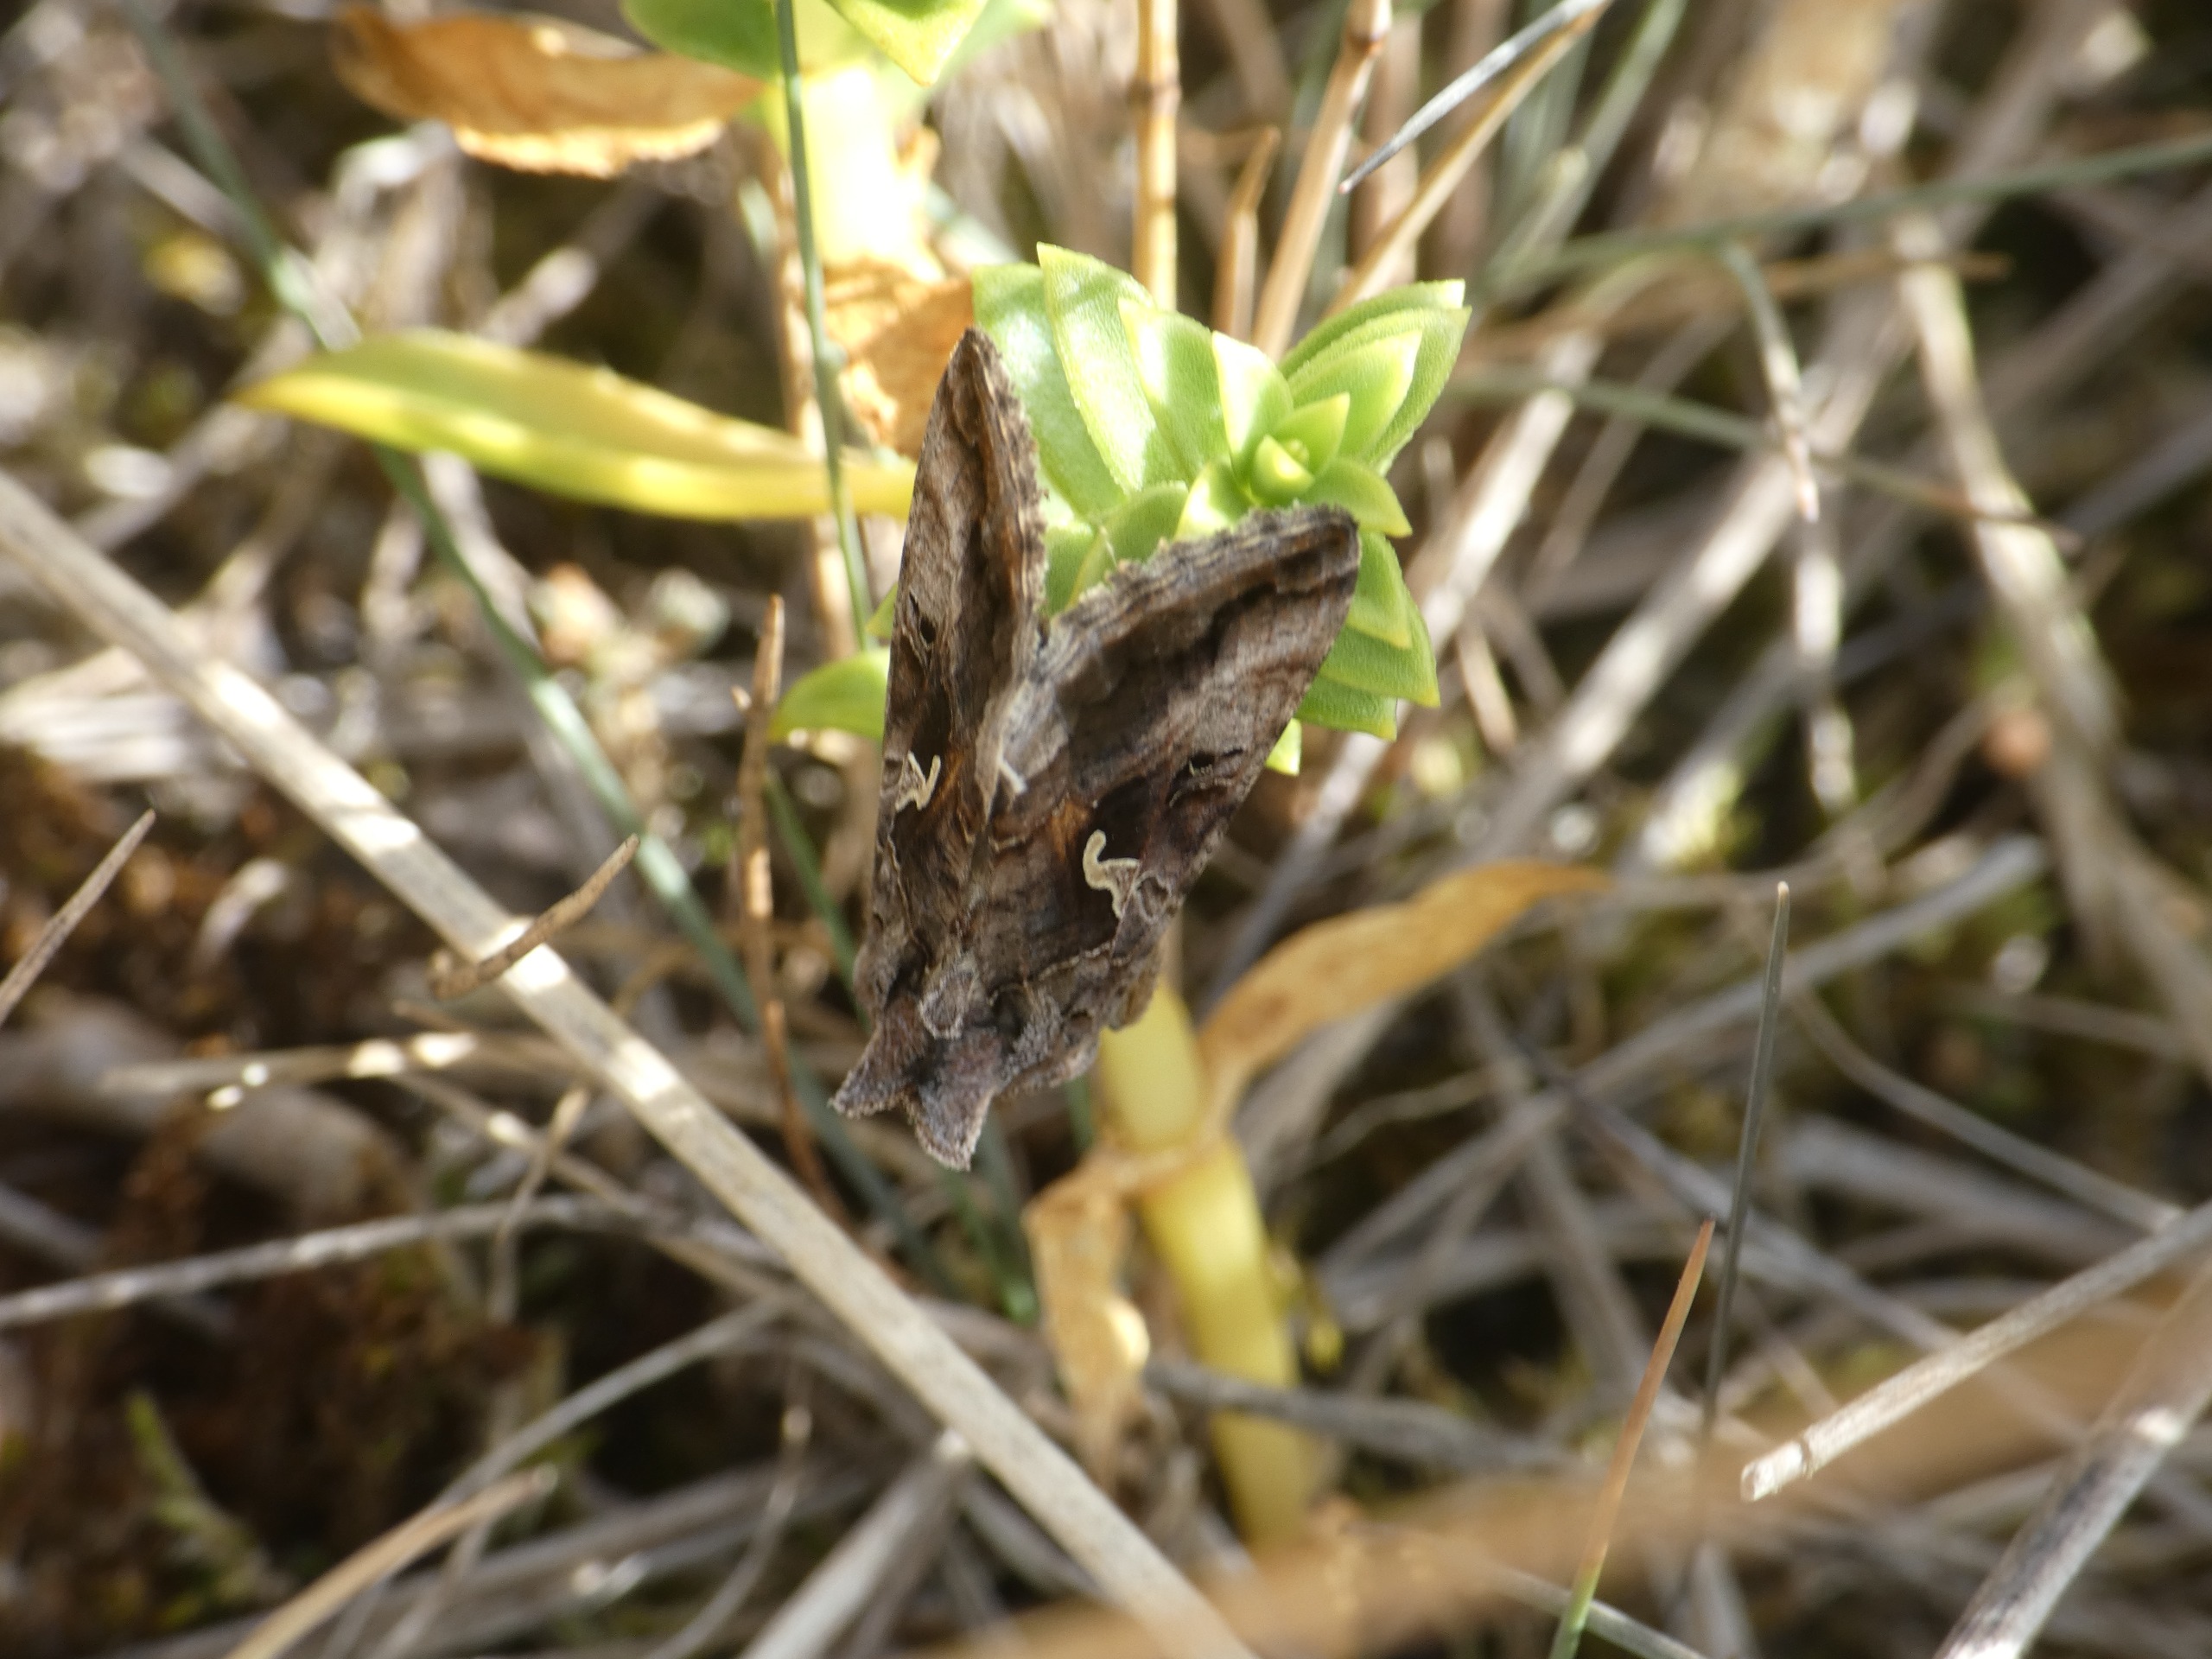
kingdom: Plantae
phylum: Tracheophyta
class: Magnoliopsida
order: Caryophyllales
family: Caryophyllaceae
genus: Honckenya
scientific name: Honckenya peploides
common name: Strandarve
